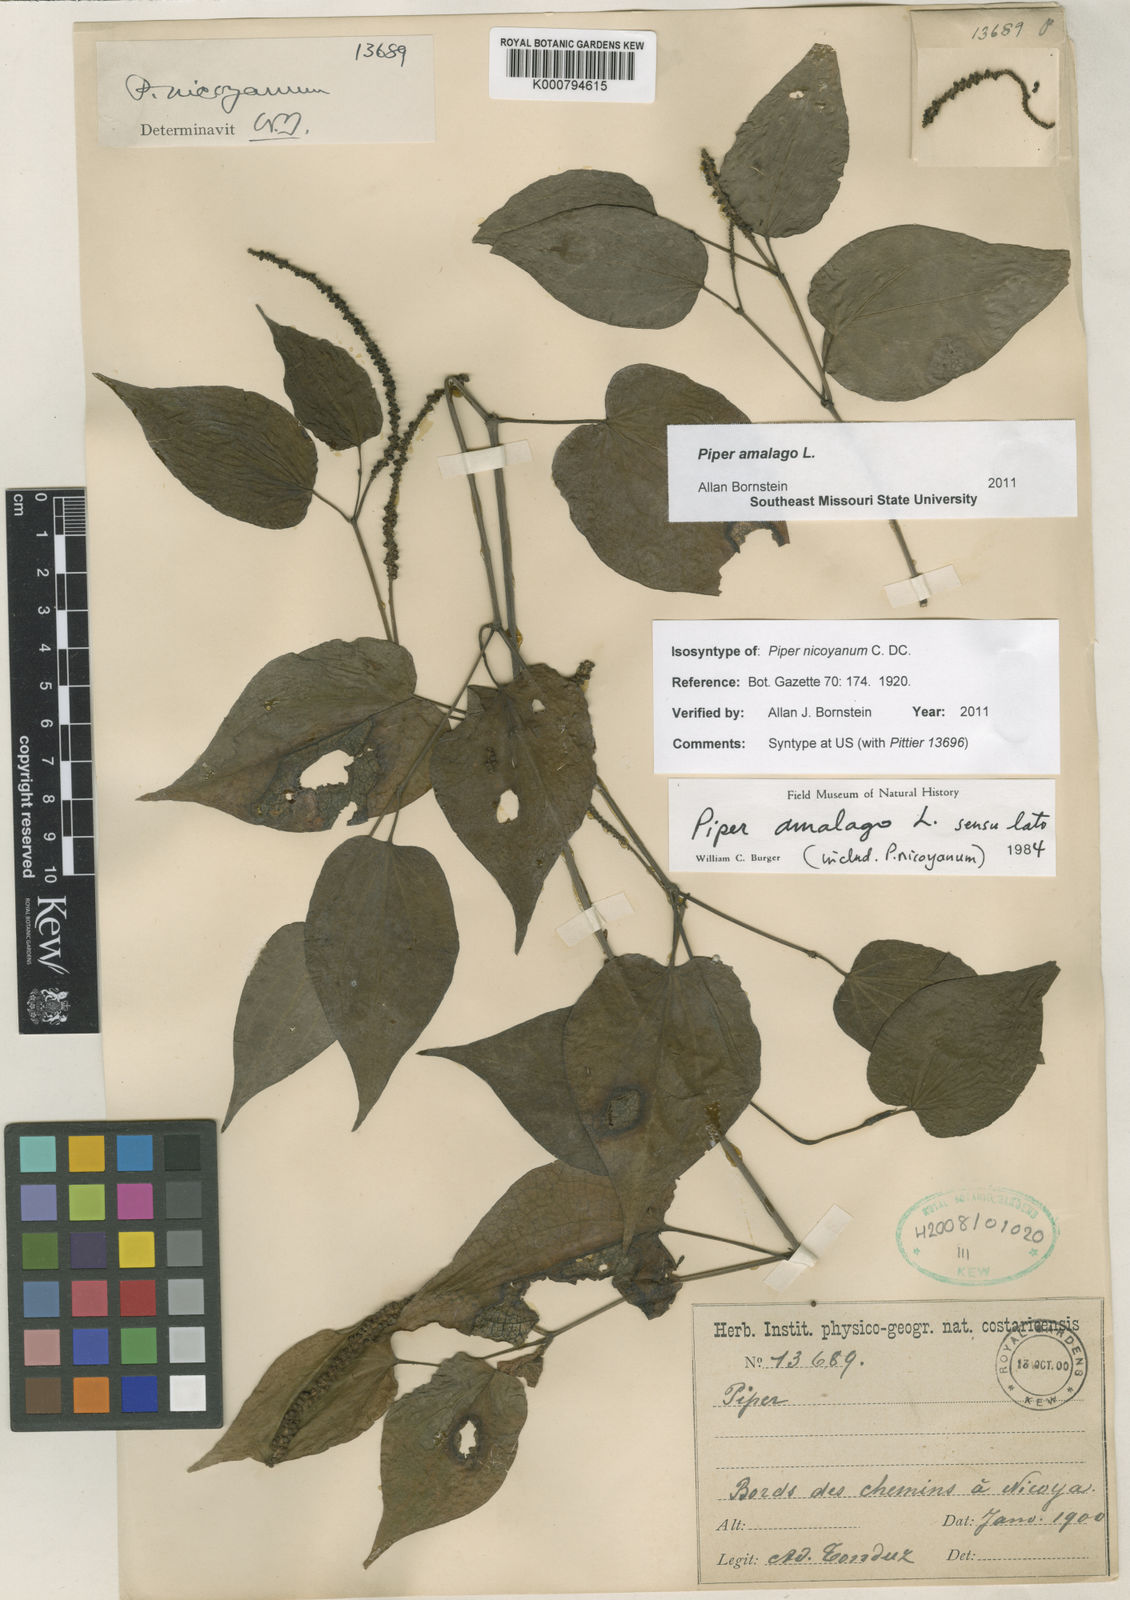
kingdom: Plantae
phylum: Tracheophyta
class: Magnoliopsida
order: Piperales
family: Piperaceae
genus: Piper
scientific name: Piper amalago
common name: Pepper-elder
